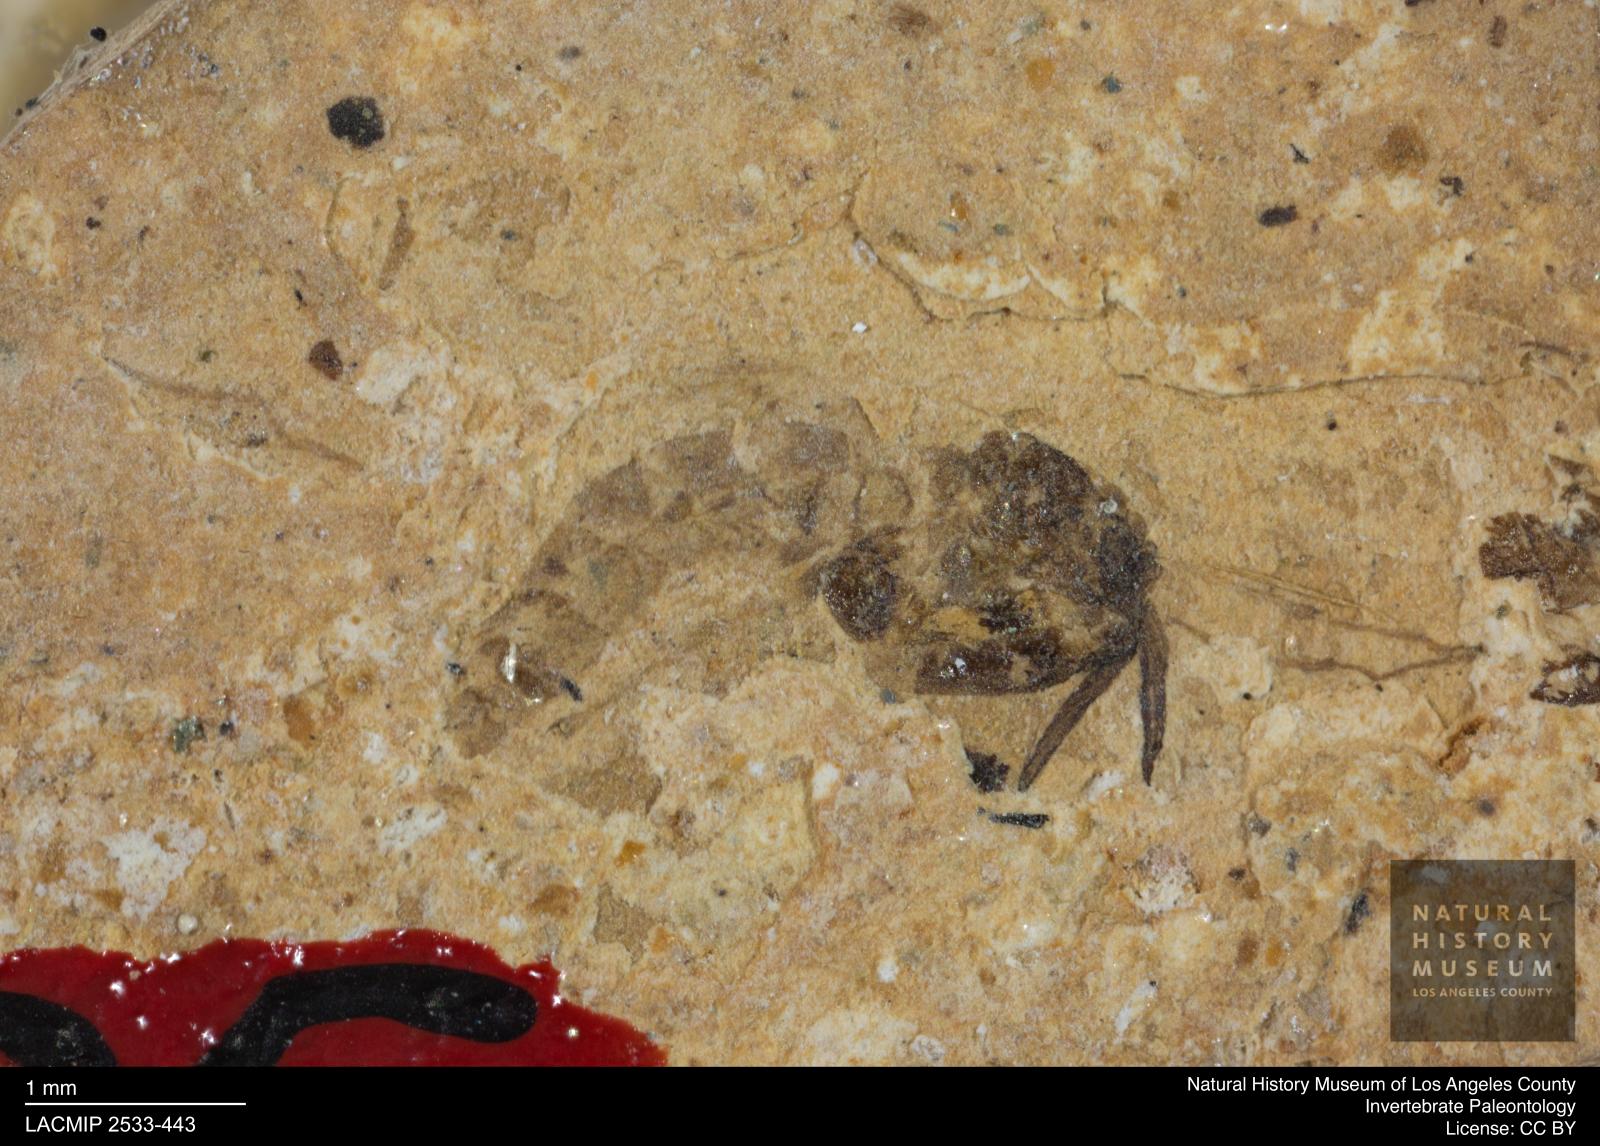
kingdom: Animalia
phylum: Arthropoda
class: Insecta
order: Diptera
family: Chironomidae
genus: Tanypus
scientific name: Tanypus thienemanni
